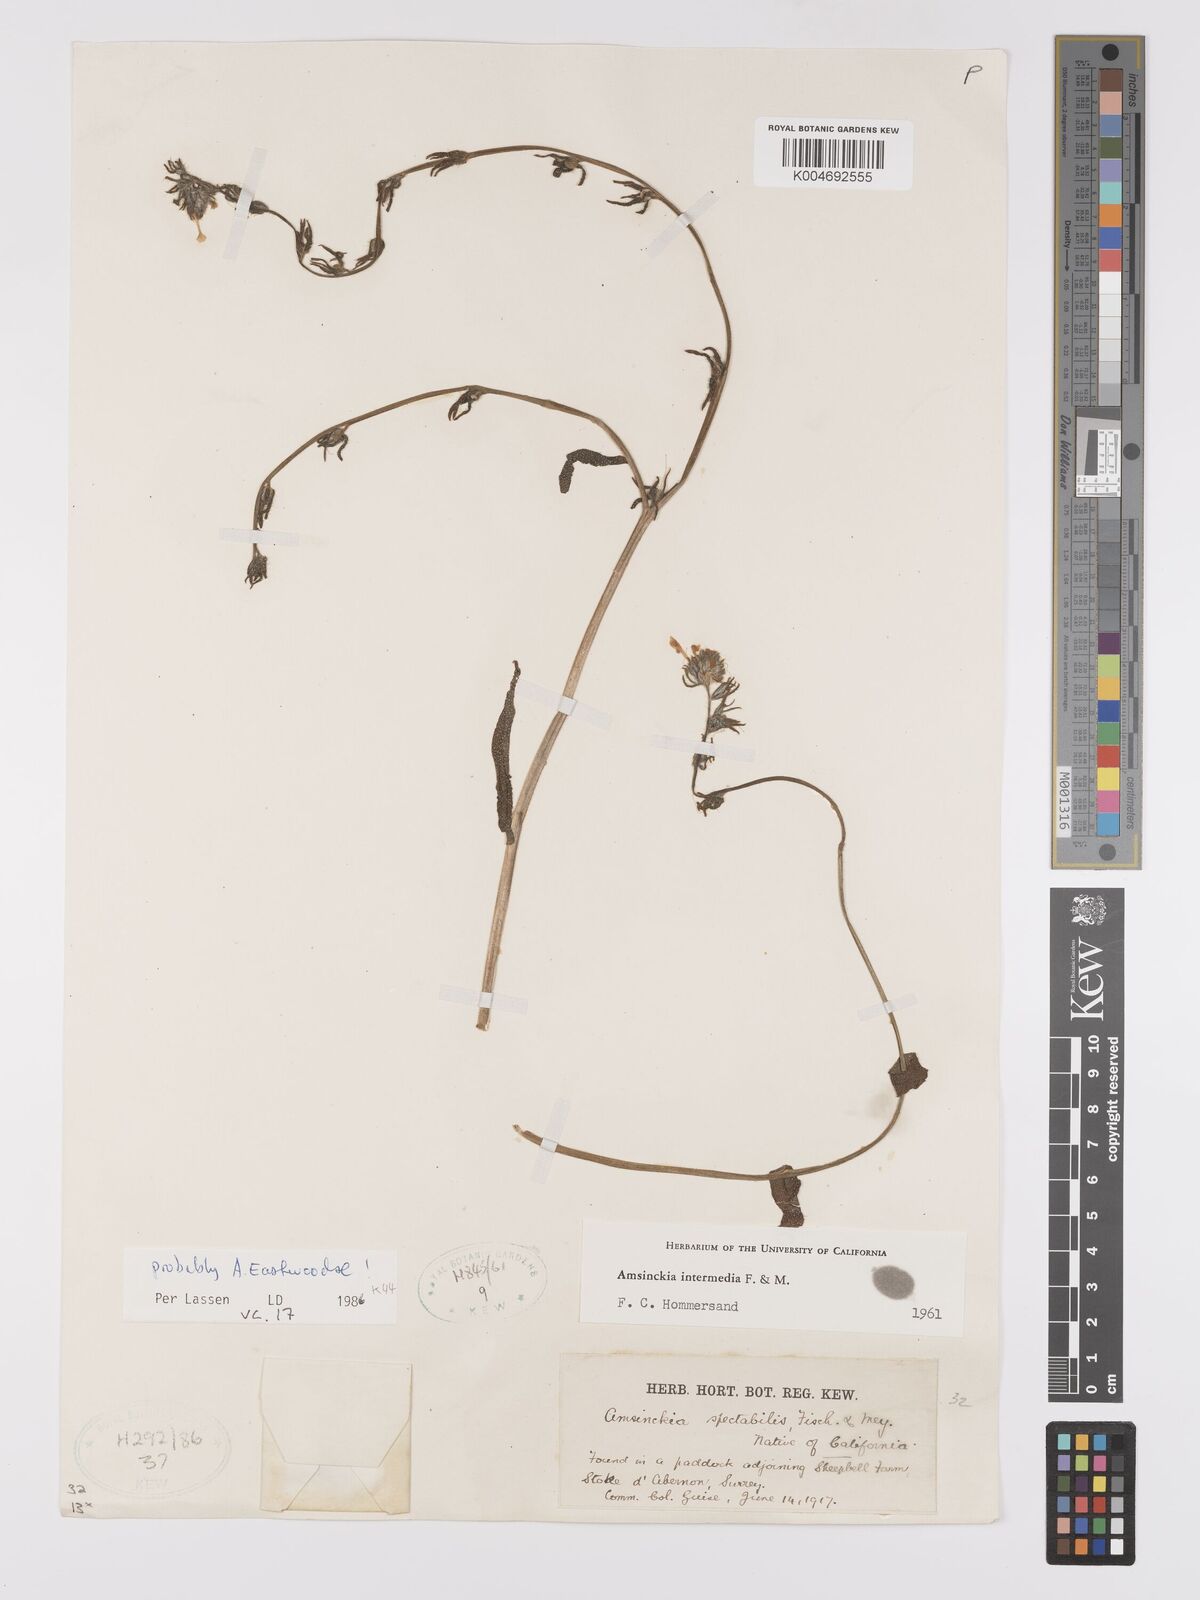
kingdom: Plantae
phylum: Tracheophyta
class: Magnoliopsida
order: Boraginales
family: Boraginaceae
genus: Amsinckia
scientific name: Amsinckia eastwoodiae
